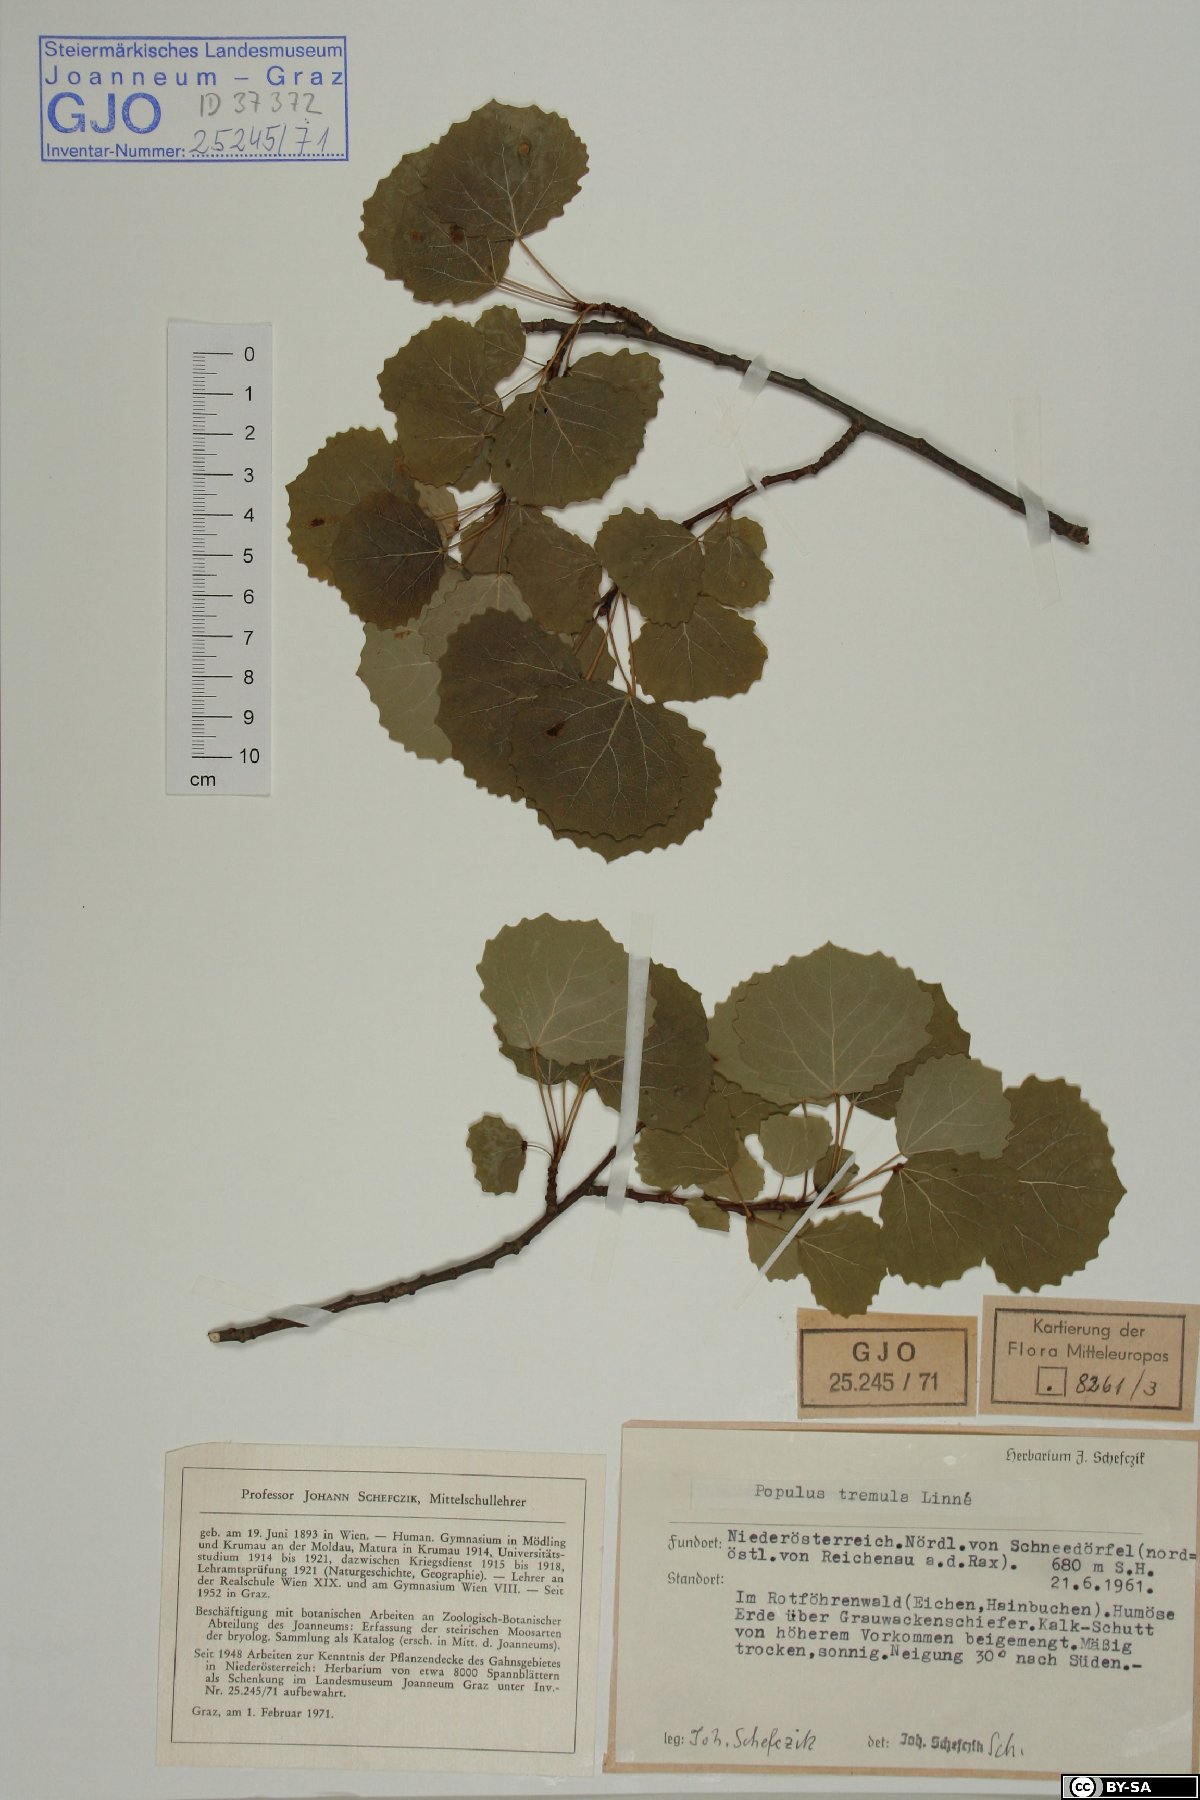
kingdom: Plantae
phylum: Tracheophyta
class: Magnoliopsida
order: Malpighiales
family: Salicaceae
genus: Populus
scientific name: Populus tremula
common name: European aspen
